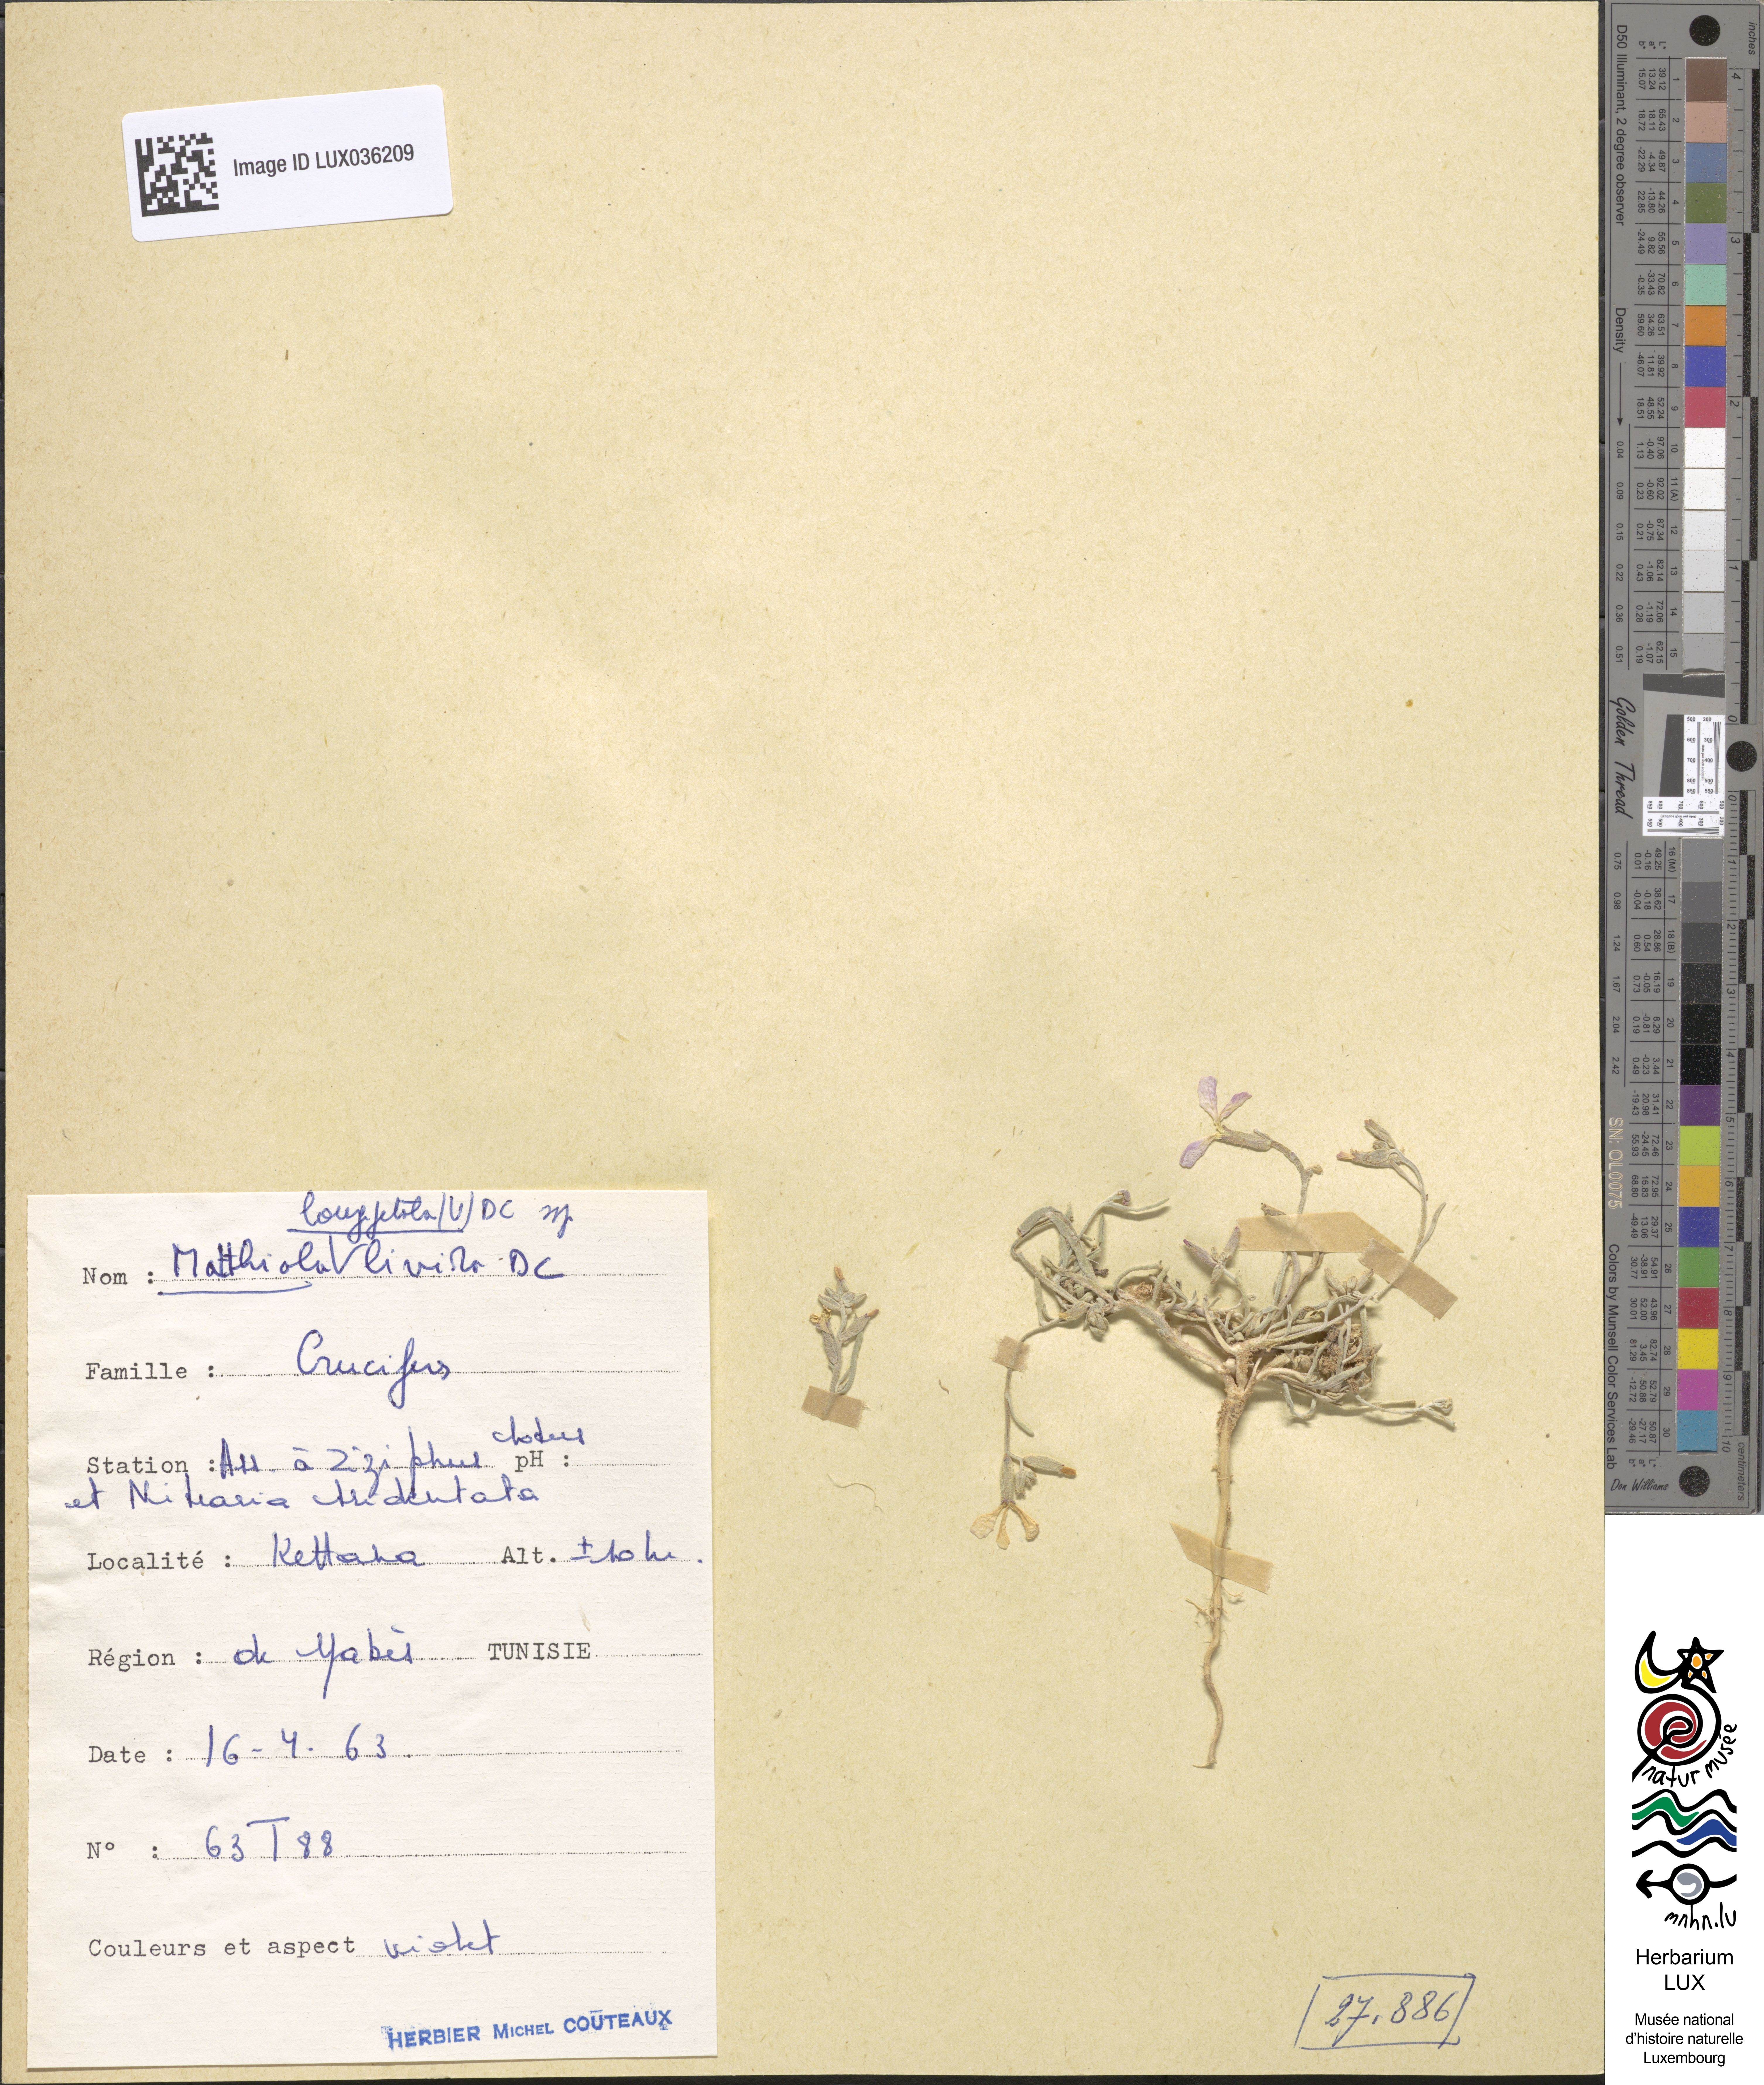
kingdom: Plantae
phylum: Tracheophyta
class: Magnoliopsida
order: Brassicales
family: Brassicaceae
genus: Matthiola
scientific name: Matthiola longipetala
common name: Night-scented stock
